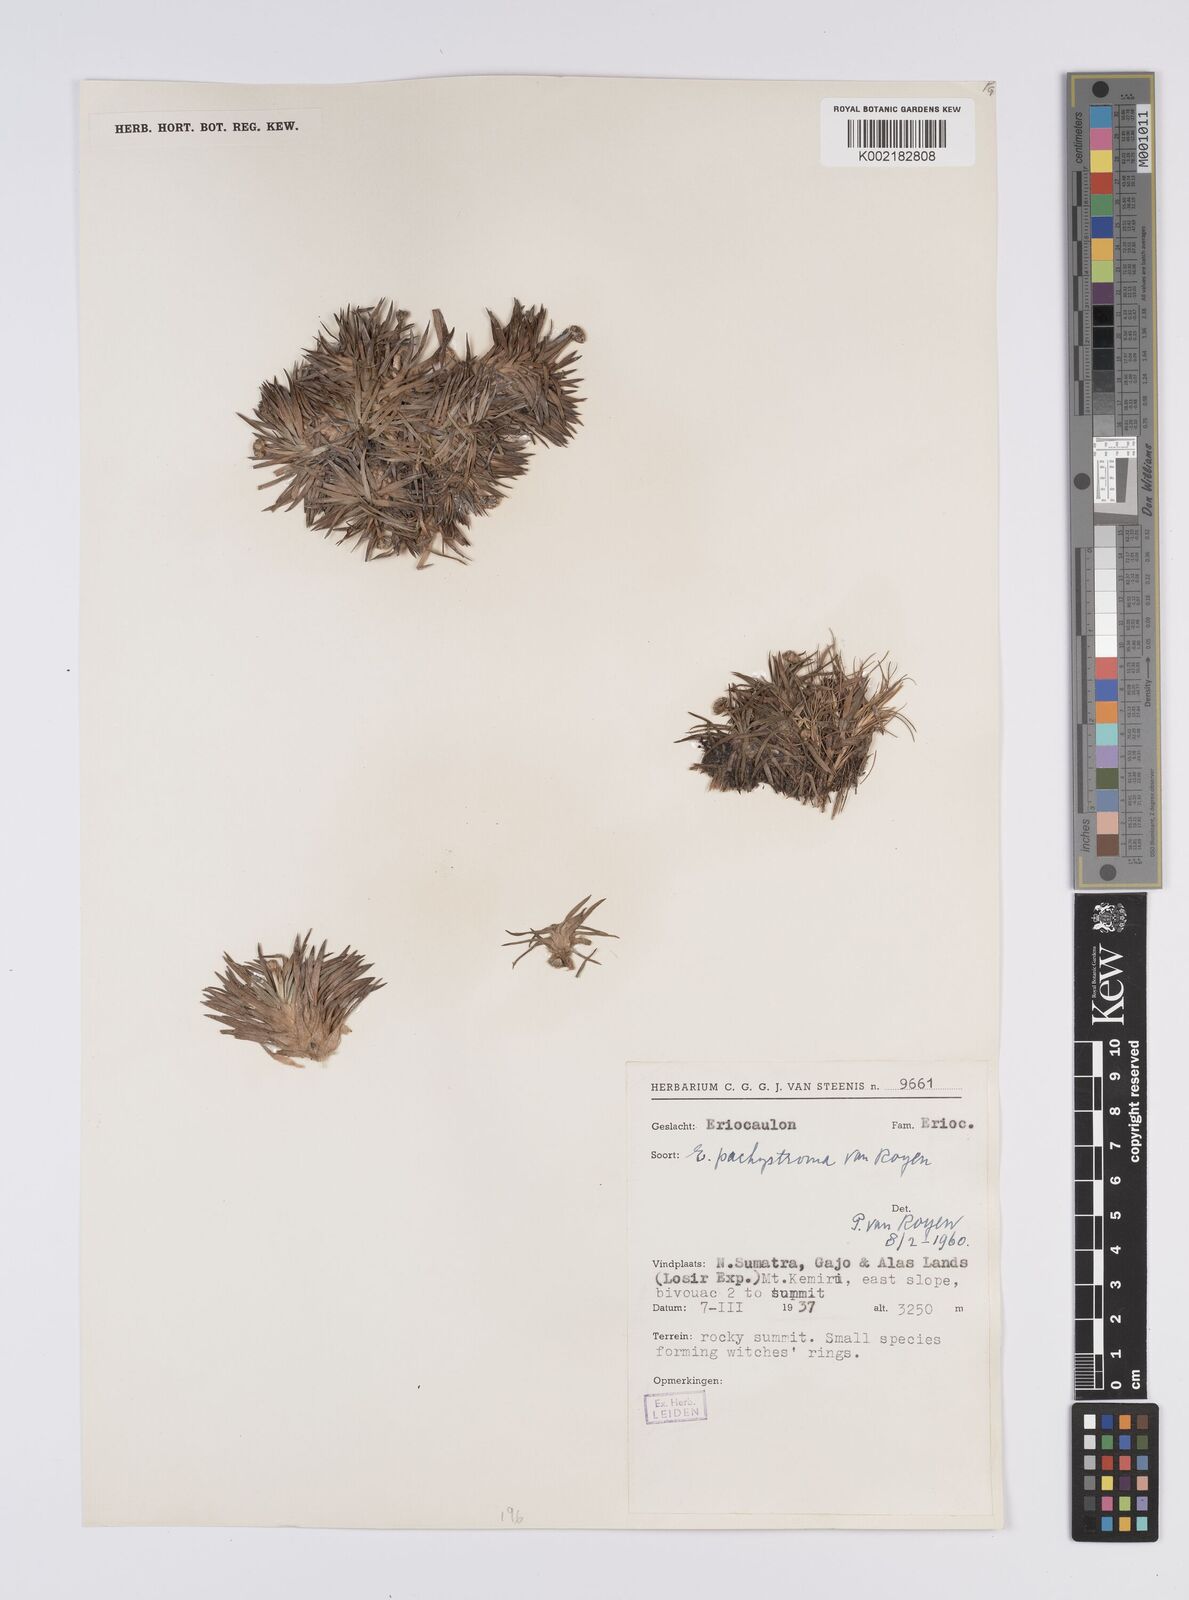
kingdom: Plantae
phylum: Tracheophyta
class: Liliopsida
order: Poales
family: Eriocaulaceae
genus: Eriocaulon
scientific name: Eriocaulon pachystroma
